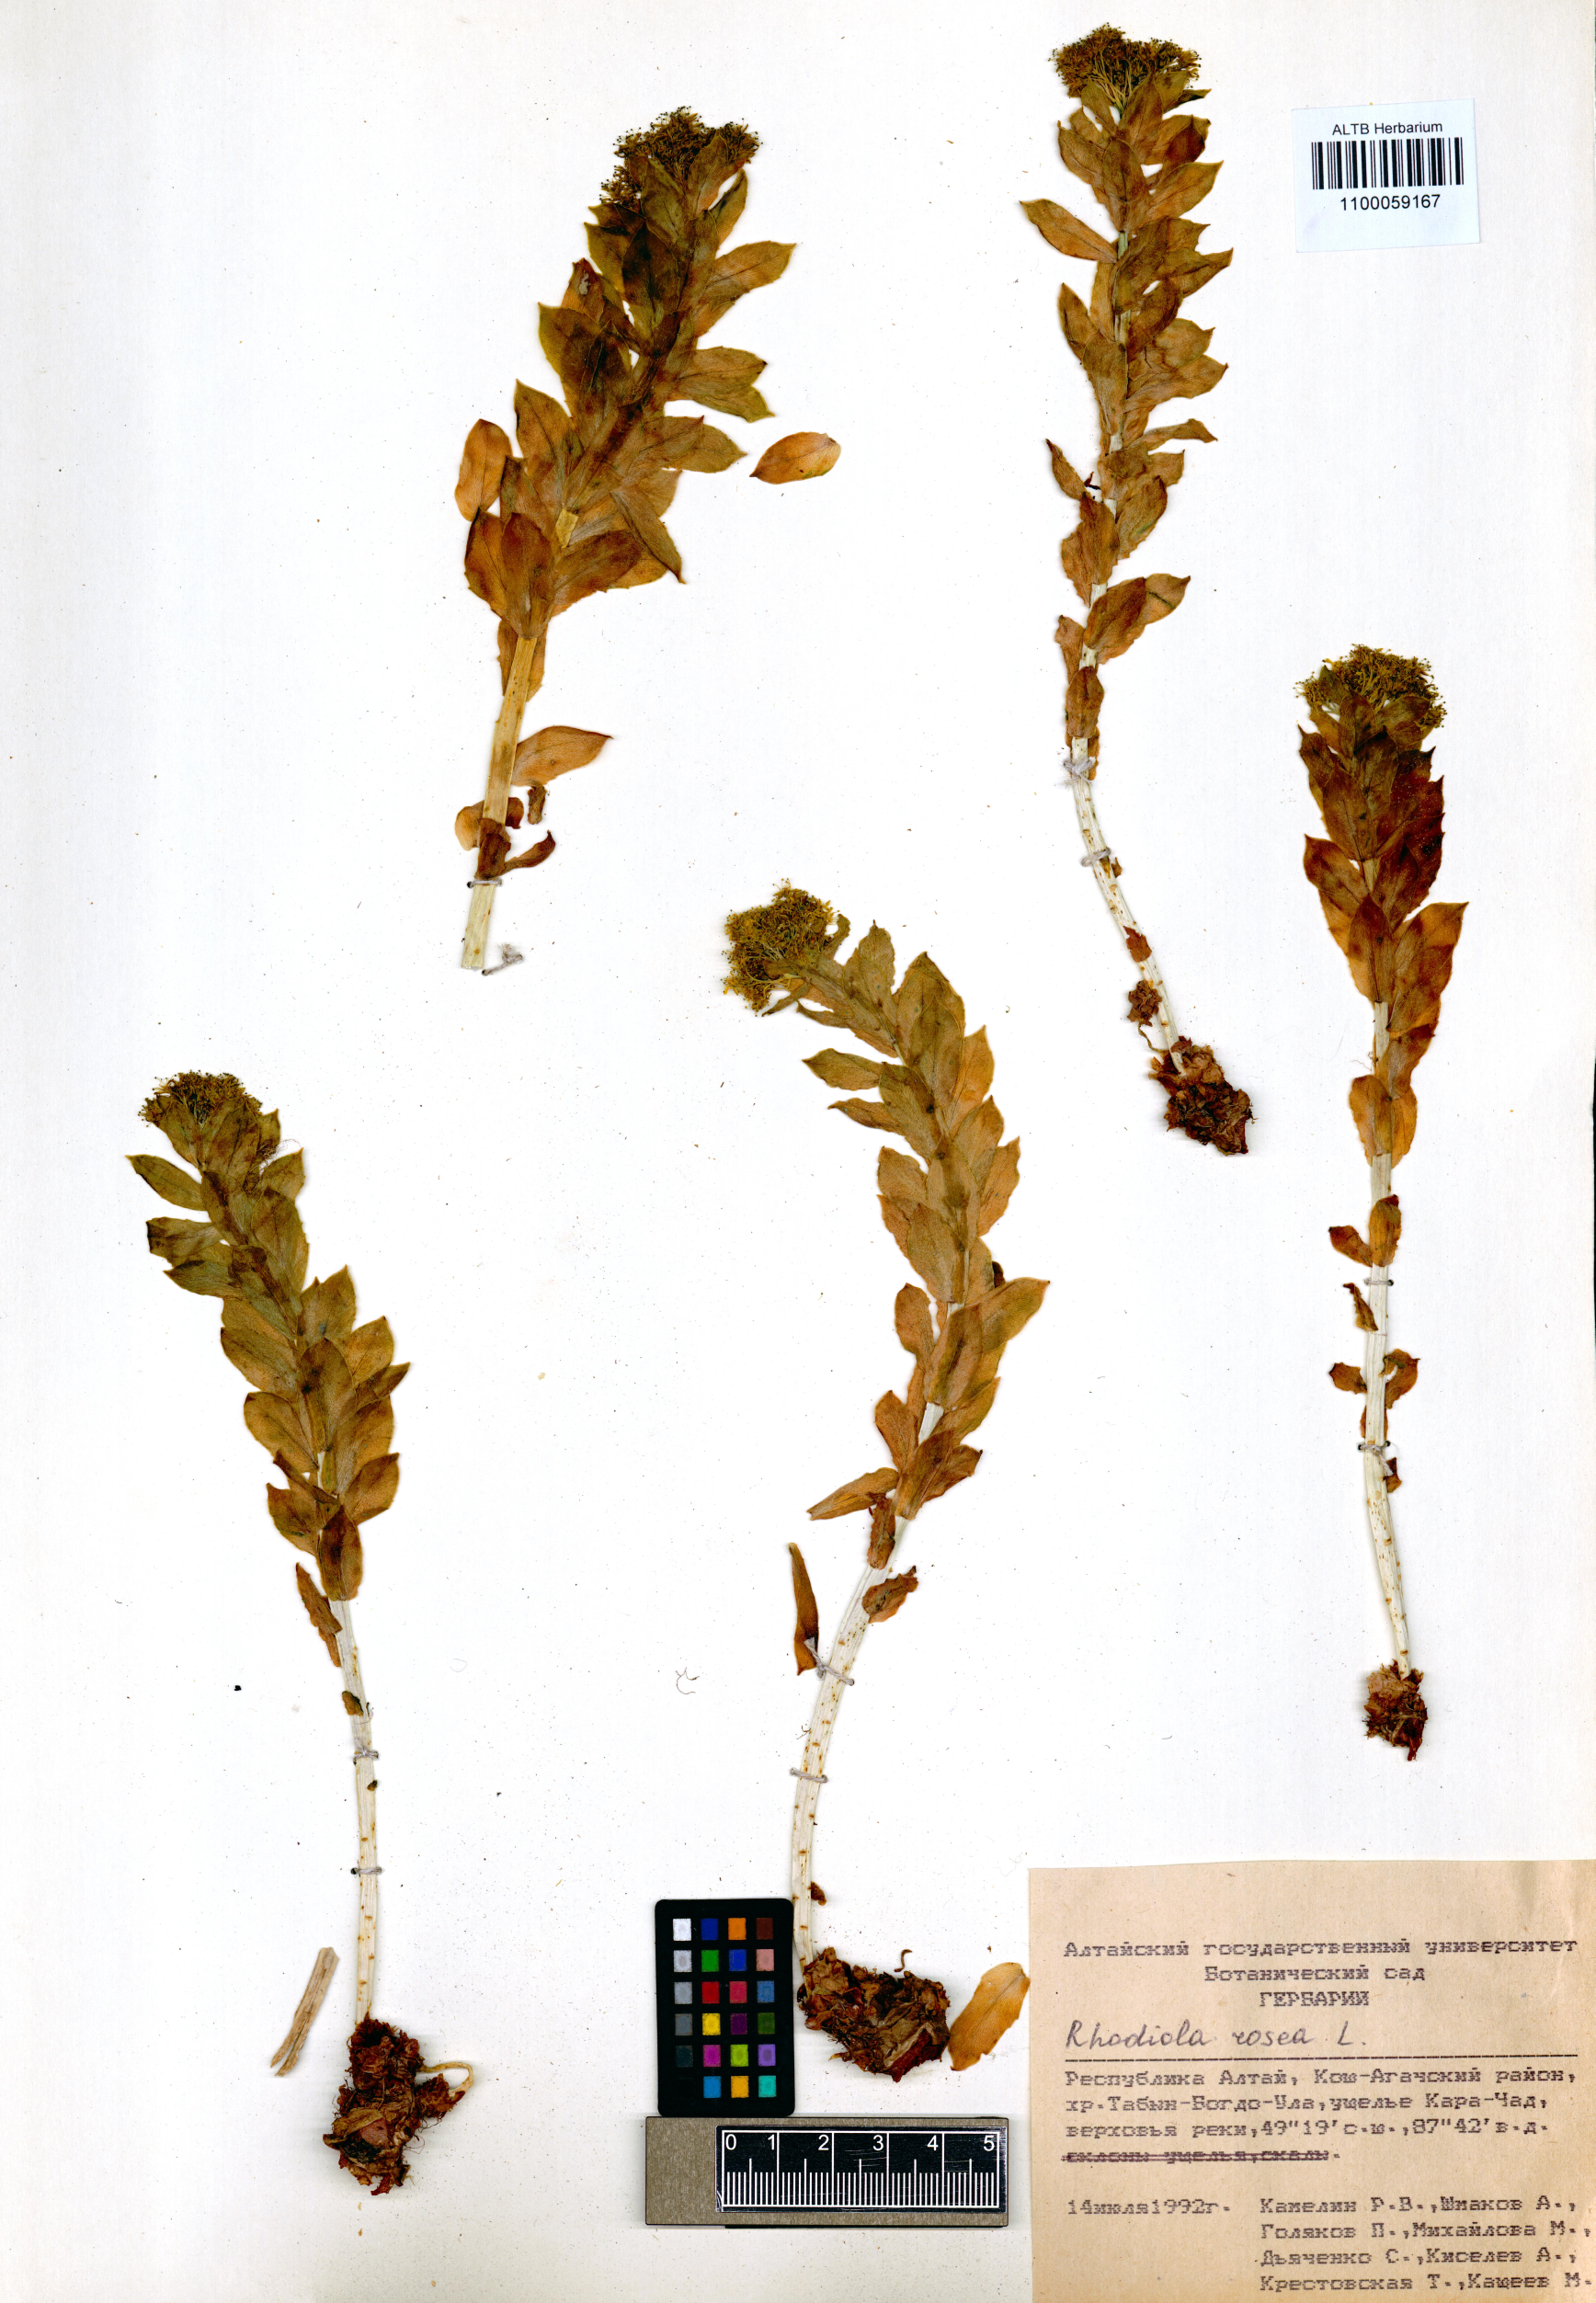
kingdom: Plantae
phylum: Tracheophyta
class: Magnoliopsida
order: Saxifragales
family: Crassulaceae
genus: Rhodiola
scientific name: Rhodiola rosea
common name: Roseroot
